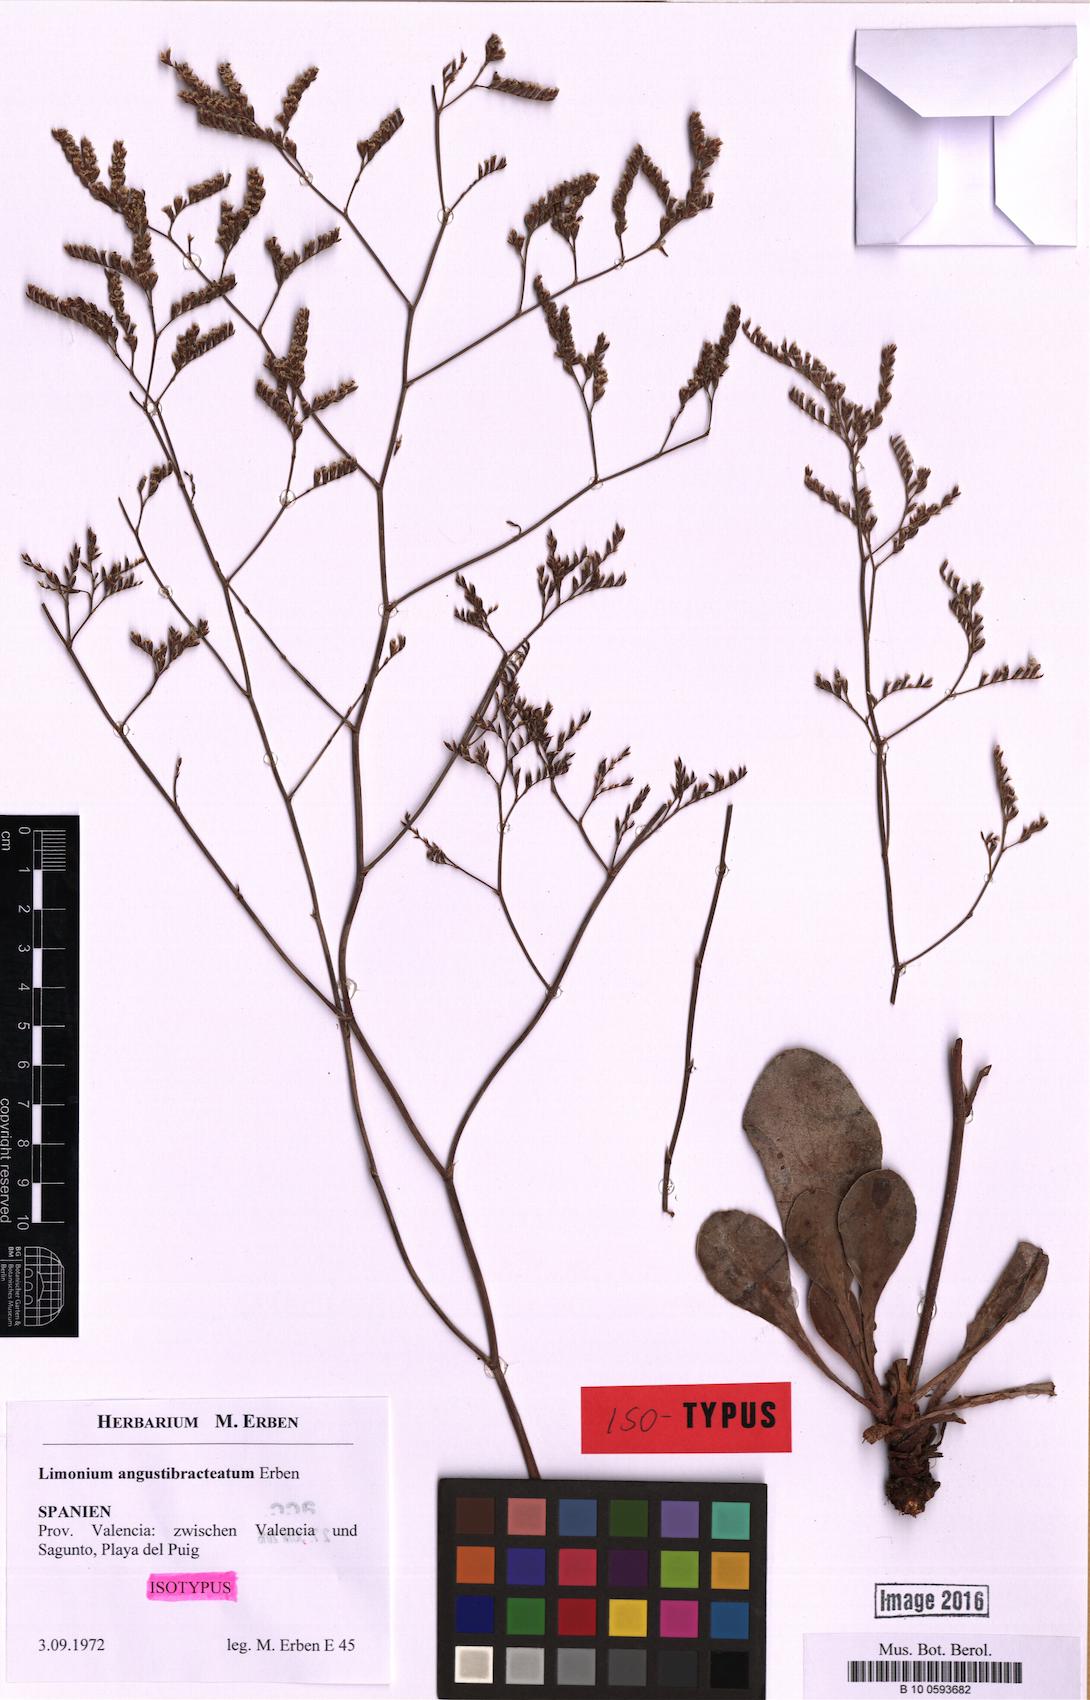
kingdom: Plantae
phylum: Tracheophyta
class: Magnoliopsida
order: Caryophyllales
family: Plumbaginaceae
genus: Limonium
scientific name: Limonium angustibracteatum
